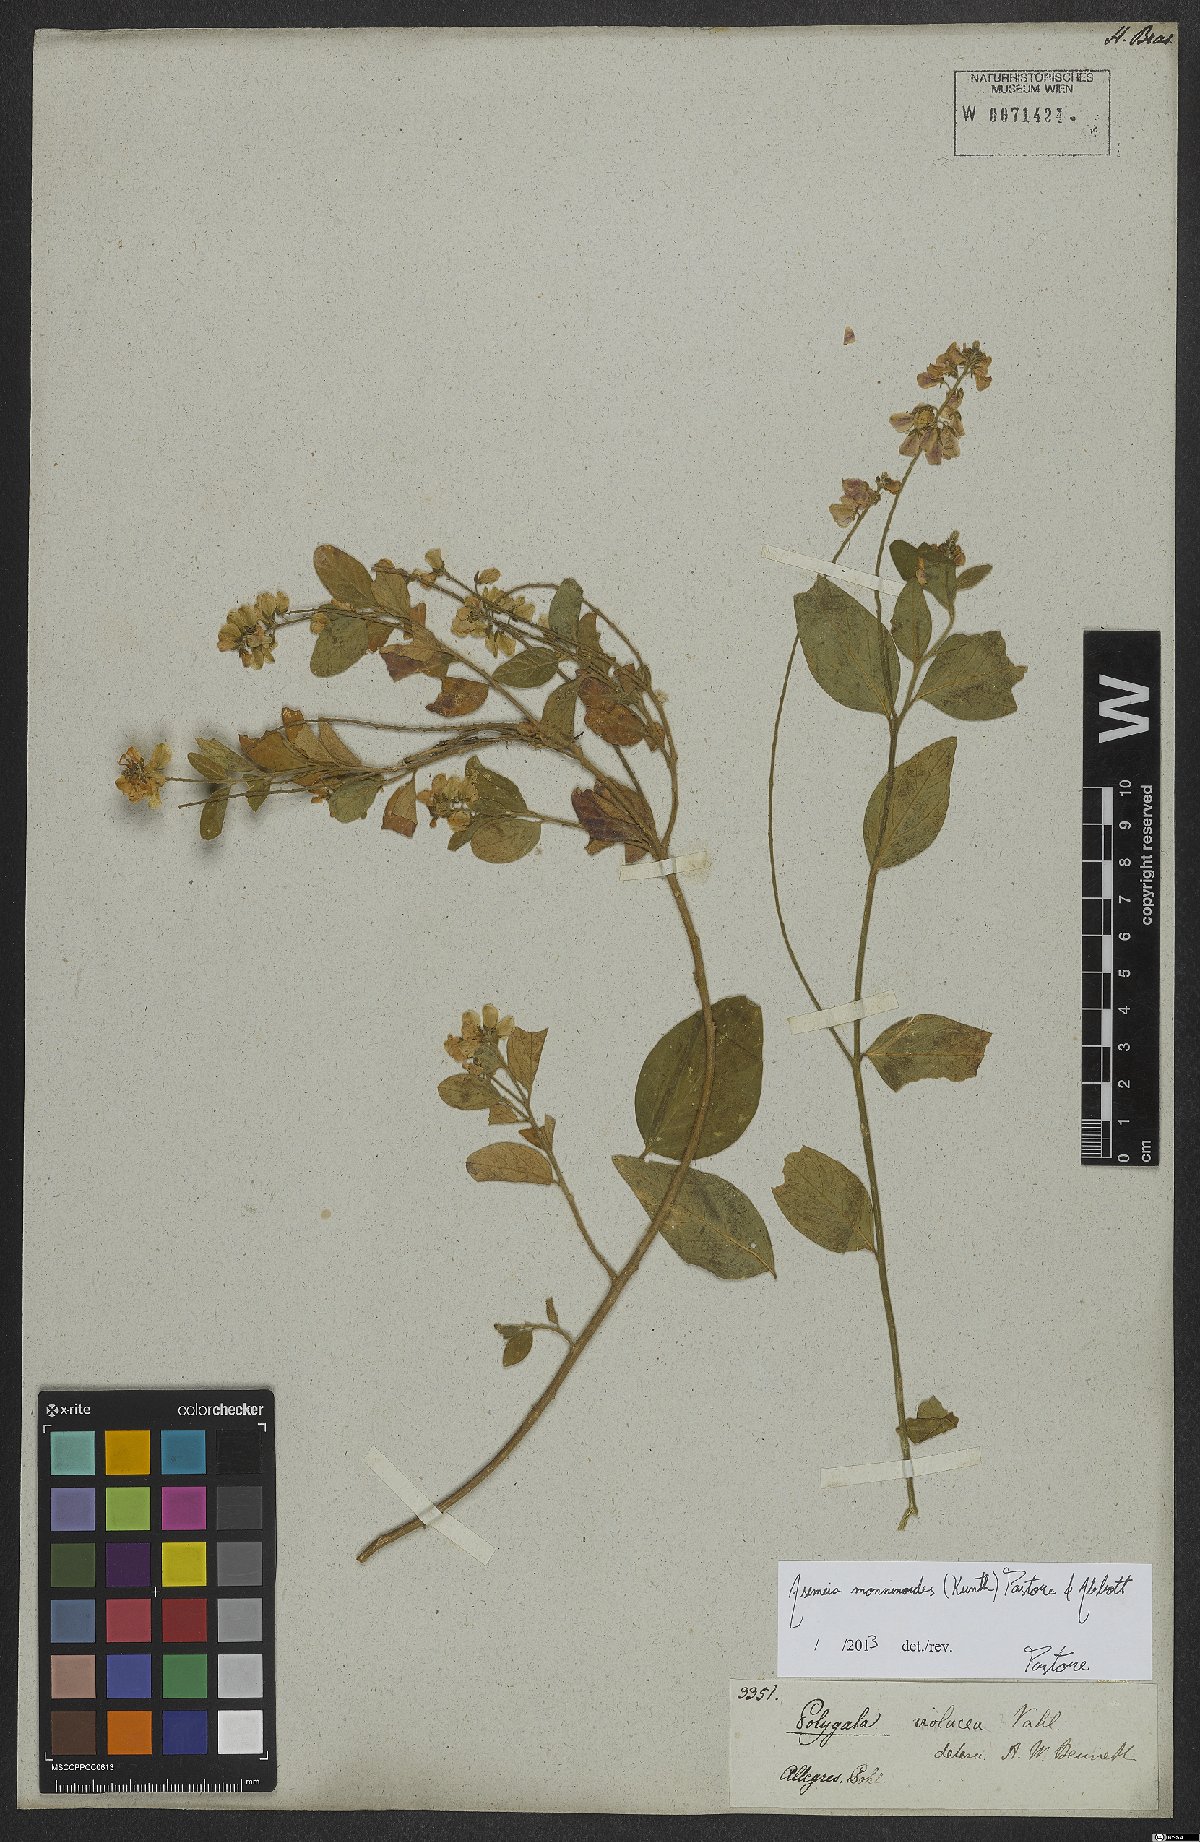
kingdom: Plantae
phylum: Tracheophyta
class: Magnoliopsida
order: Fabales
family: Polygalaceae
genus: Asemeia
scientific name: Asemeia monninoides
